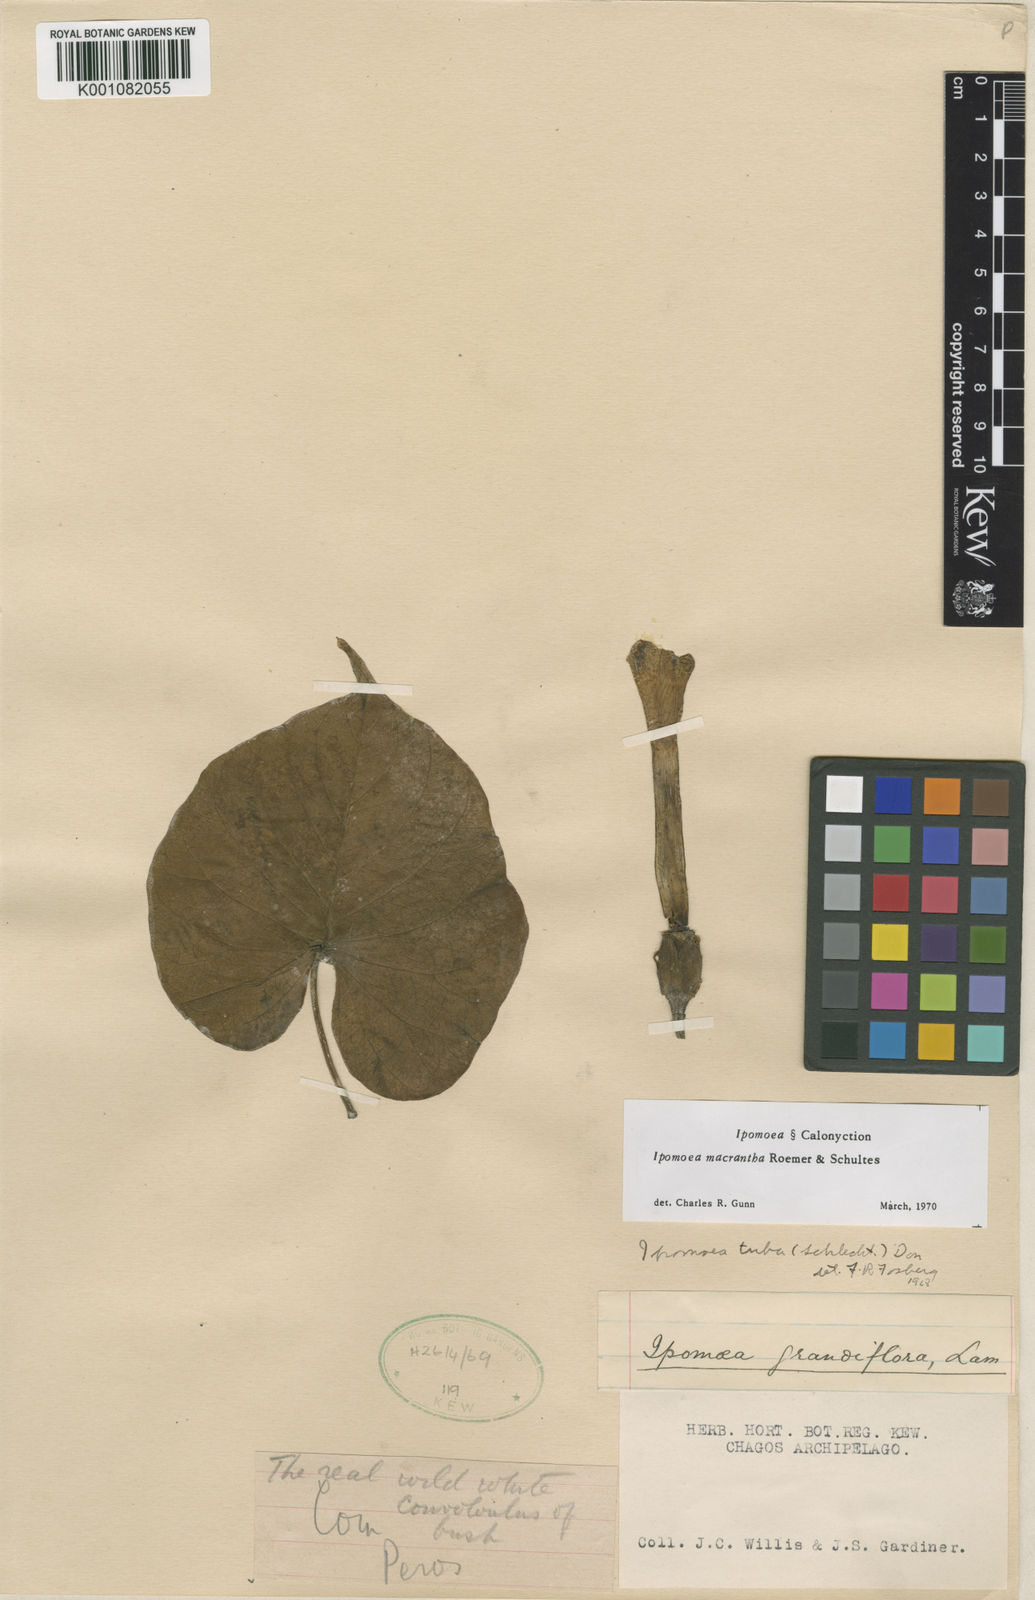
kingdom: Plantae
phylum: Tracheophyta
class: Magnoliopsida
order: Solanales
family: Convolvulaceae
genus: Ipomoea
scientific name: Ipomoea violacea
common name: Beach moonflower
